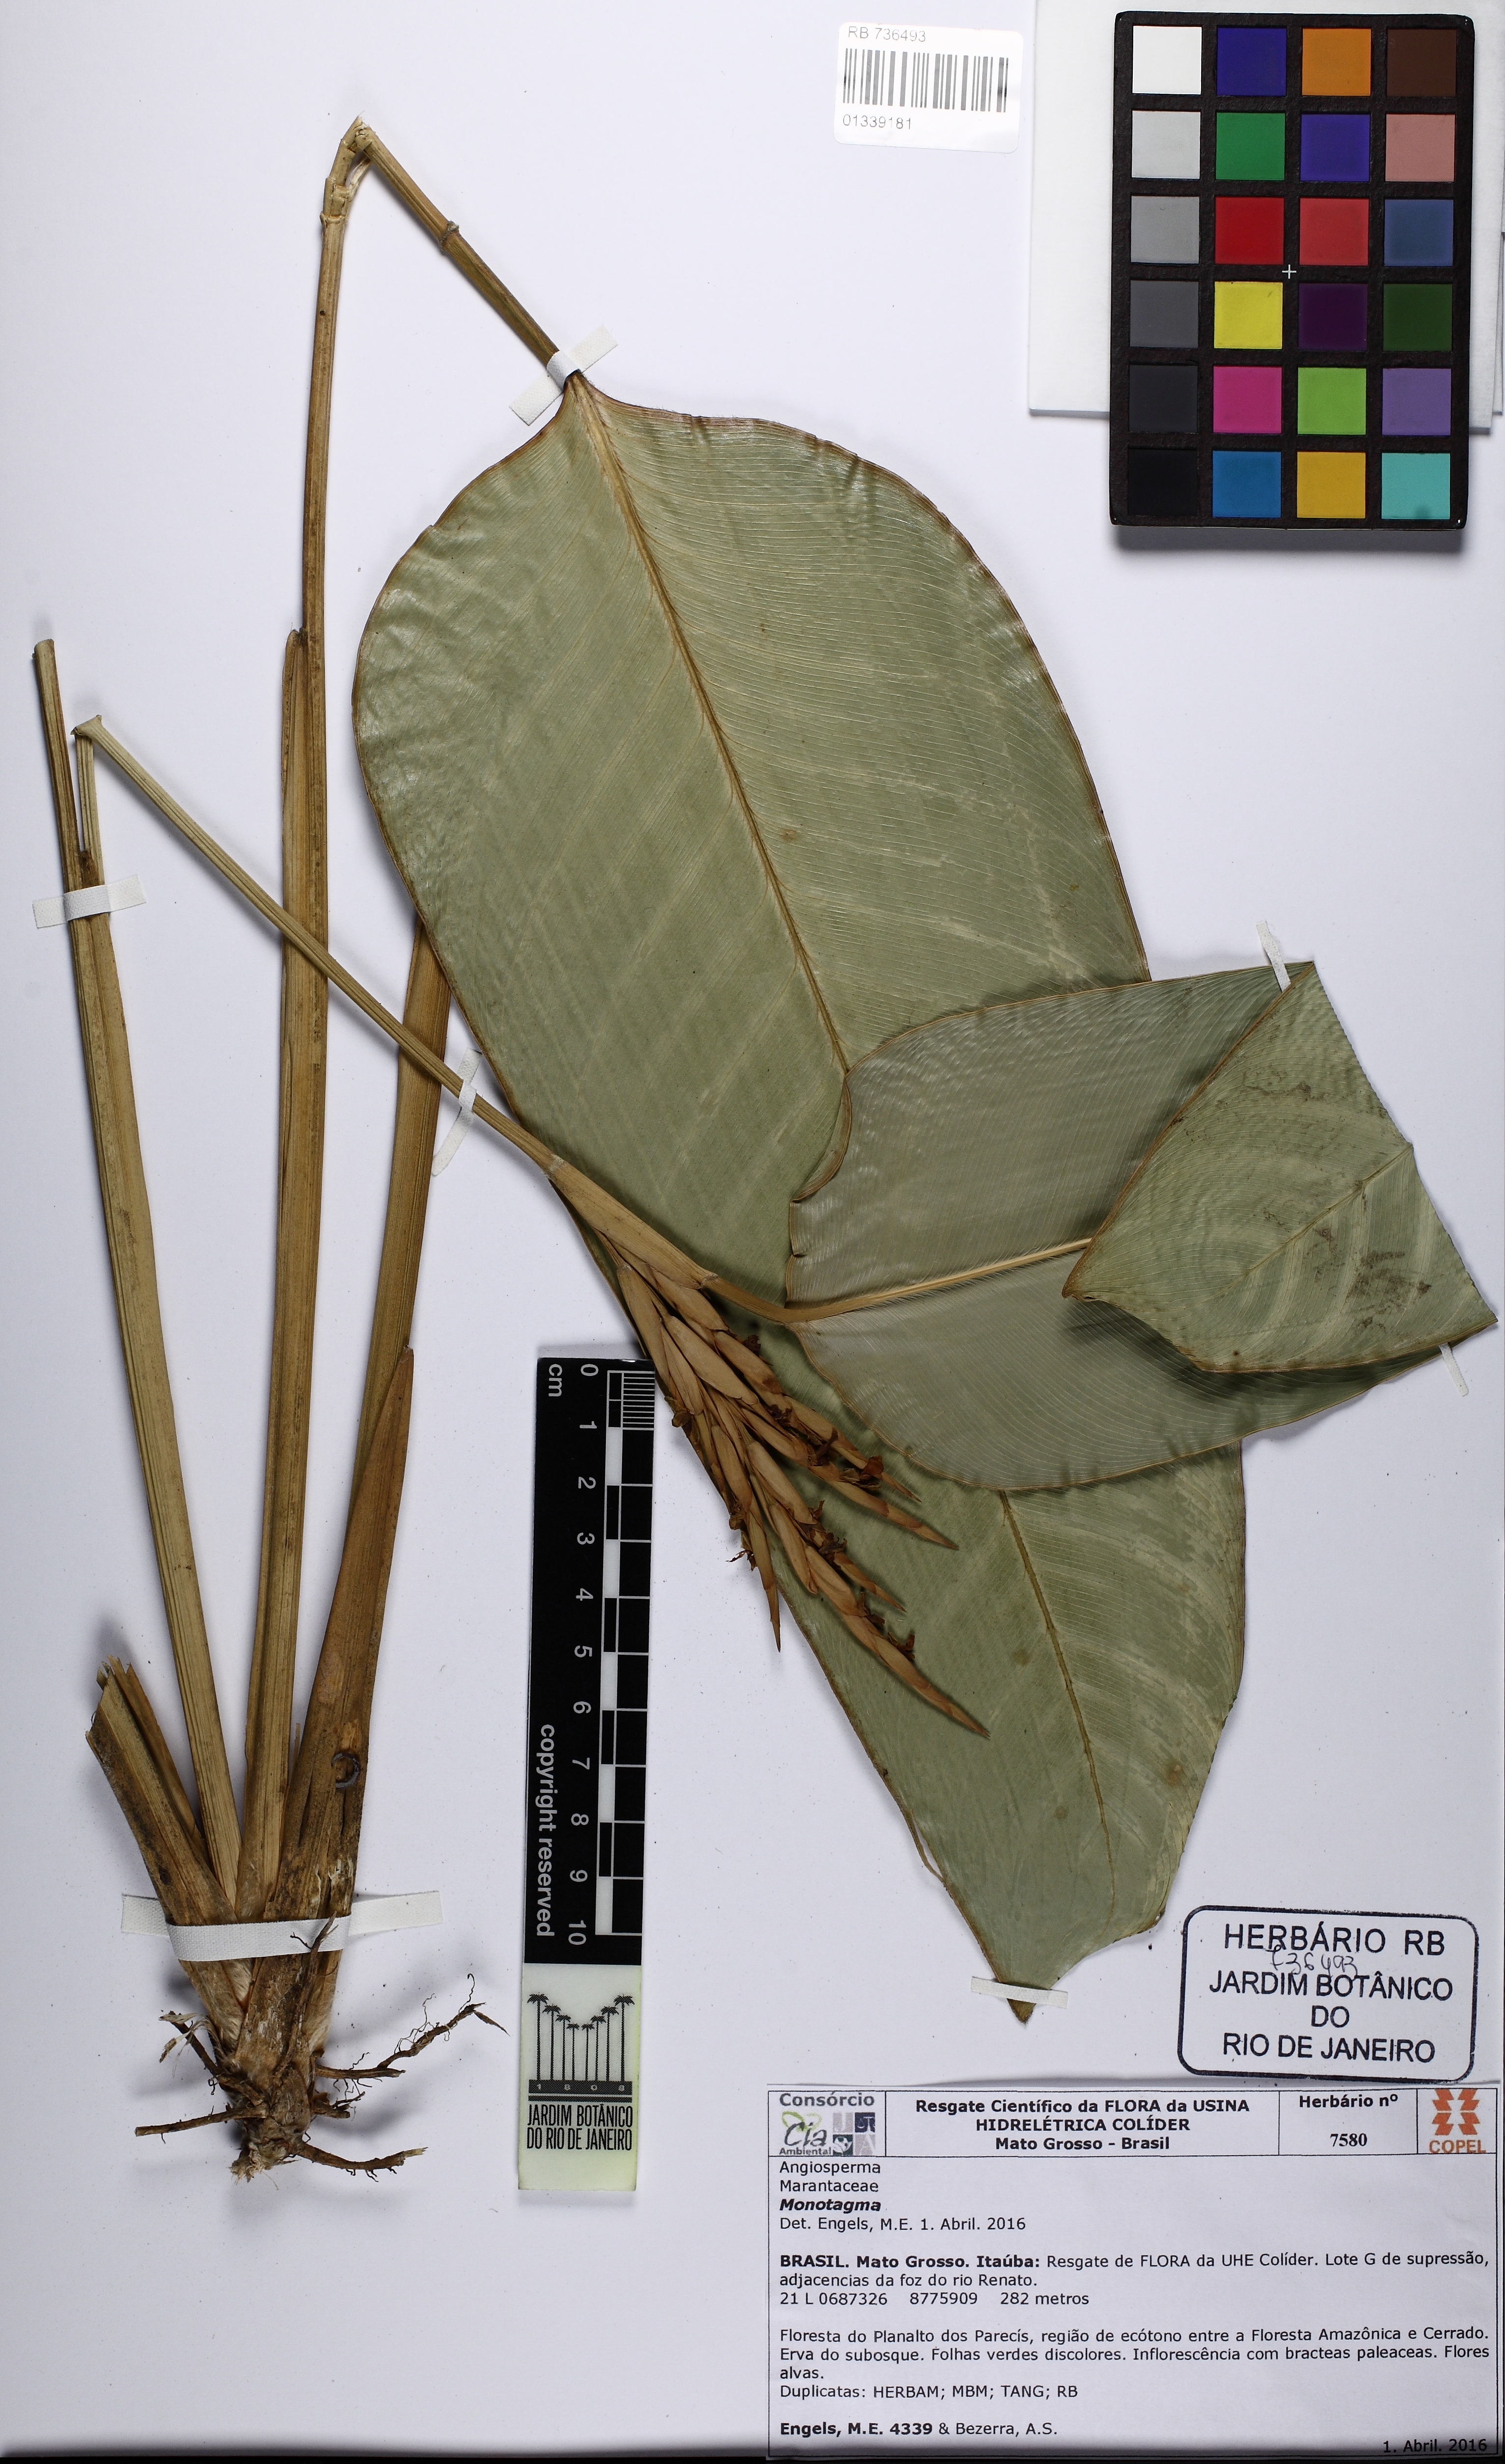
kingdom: Plantae
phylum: Tracheophyta
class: Liliopsida
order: Zingiberales
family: Marantaceae
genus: Monotagma
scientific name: Monotagma
